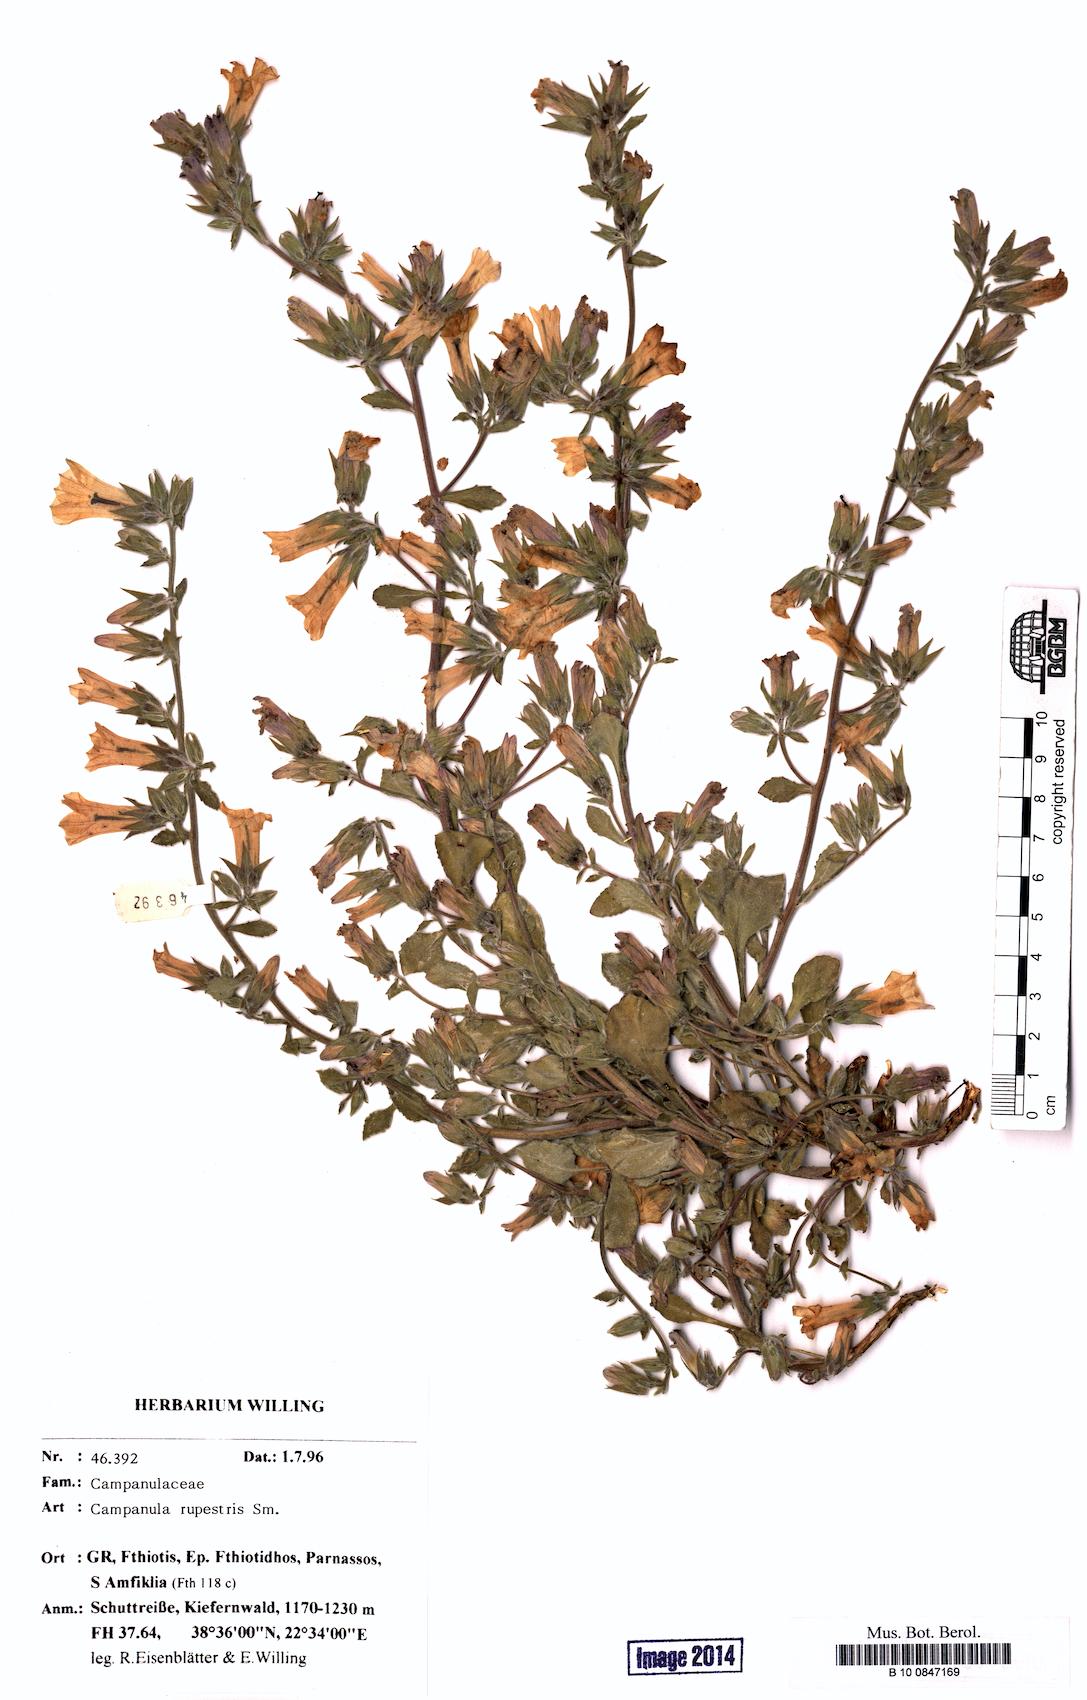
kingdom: Plantae
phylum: Tracheophyta
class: Magnoliopsida
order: Asterales
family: Campanulaceae
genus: Campanula
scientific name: Campanula rupestris
